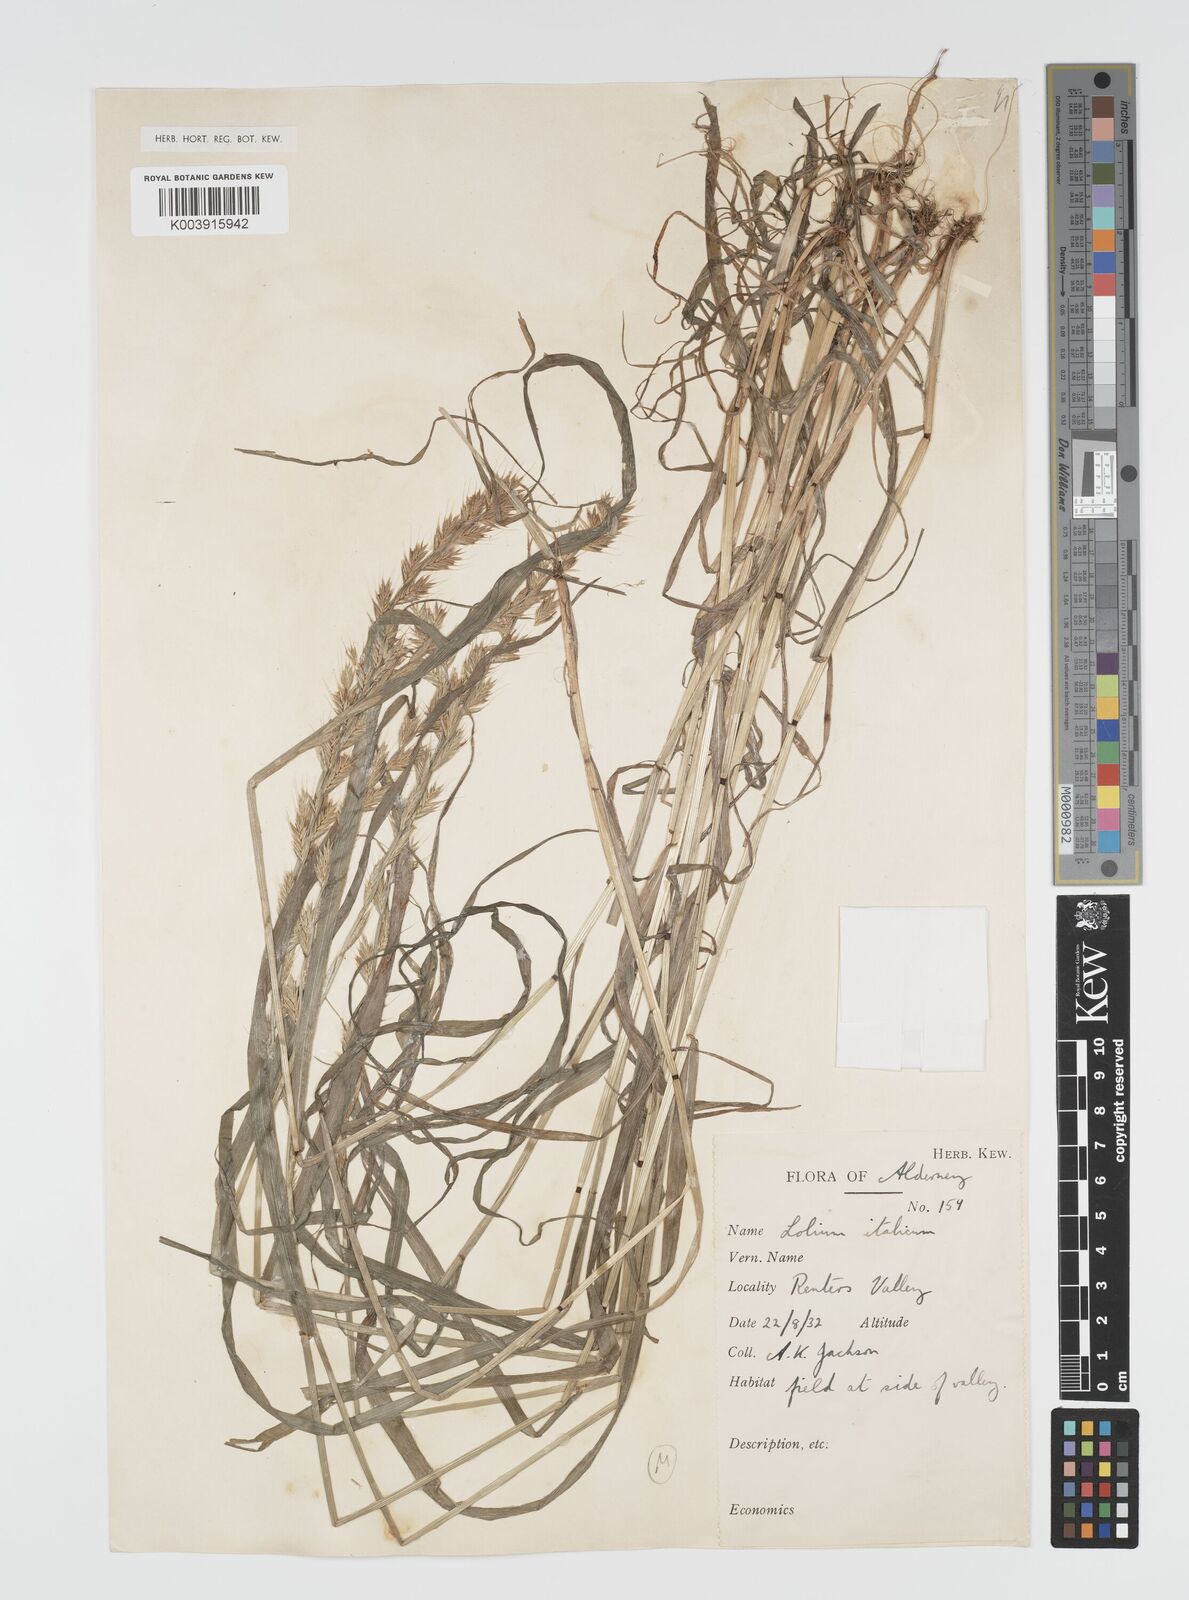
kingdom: Plantae
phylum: Tracheophyta
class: Liliopsida
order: Poales
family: Poaceae
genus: Lolium
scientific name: Lolium multiflorum
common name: Annual ryegrass
